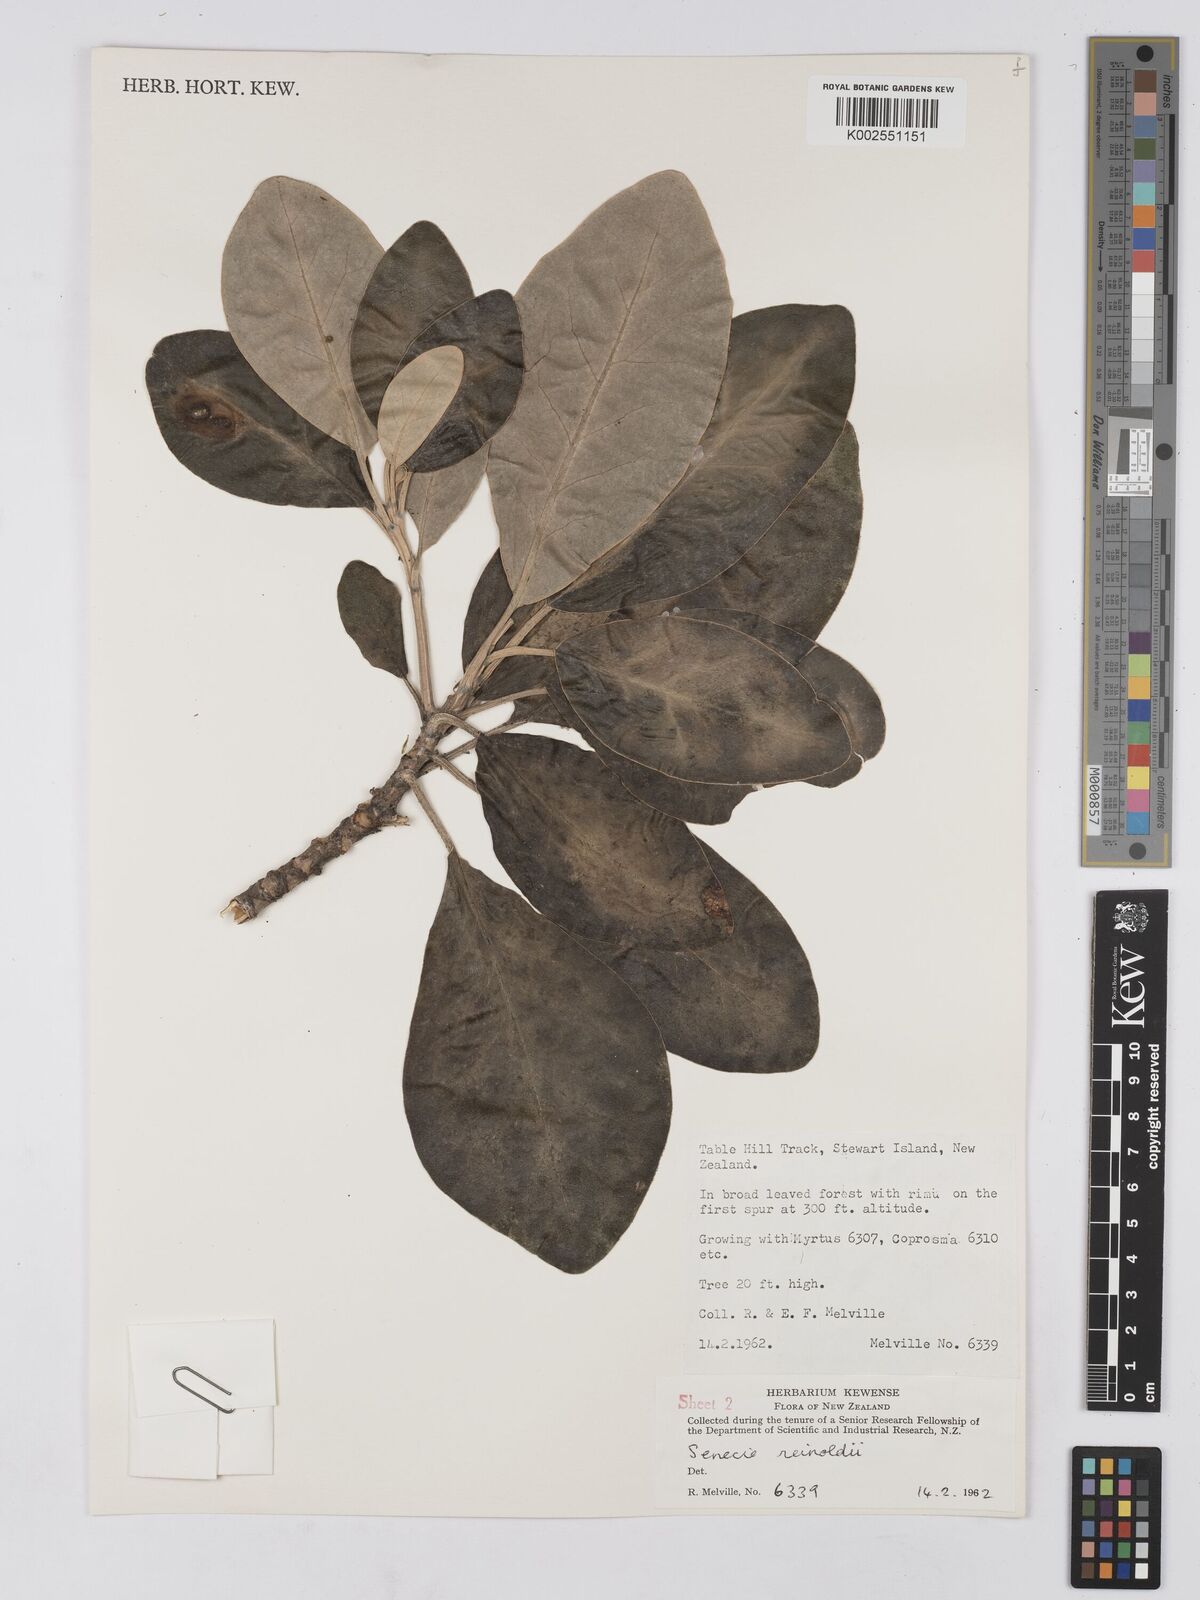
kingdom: Plantae
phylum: Tracheophyta
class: Magnoliopsida
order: Asterales
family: Asteraceae
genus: Brachyglottis
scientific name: Brachyglottis rotundifolia
